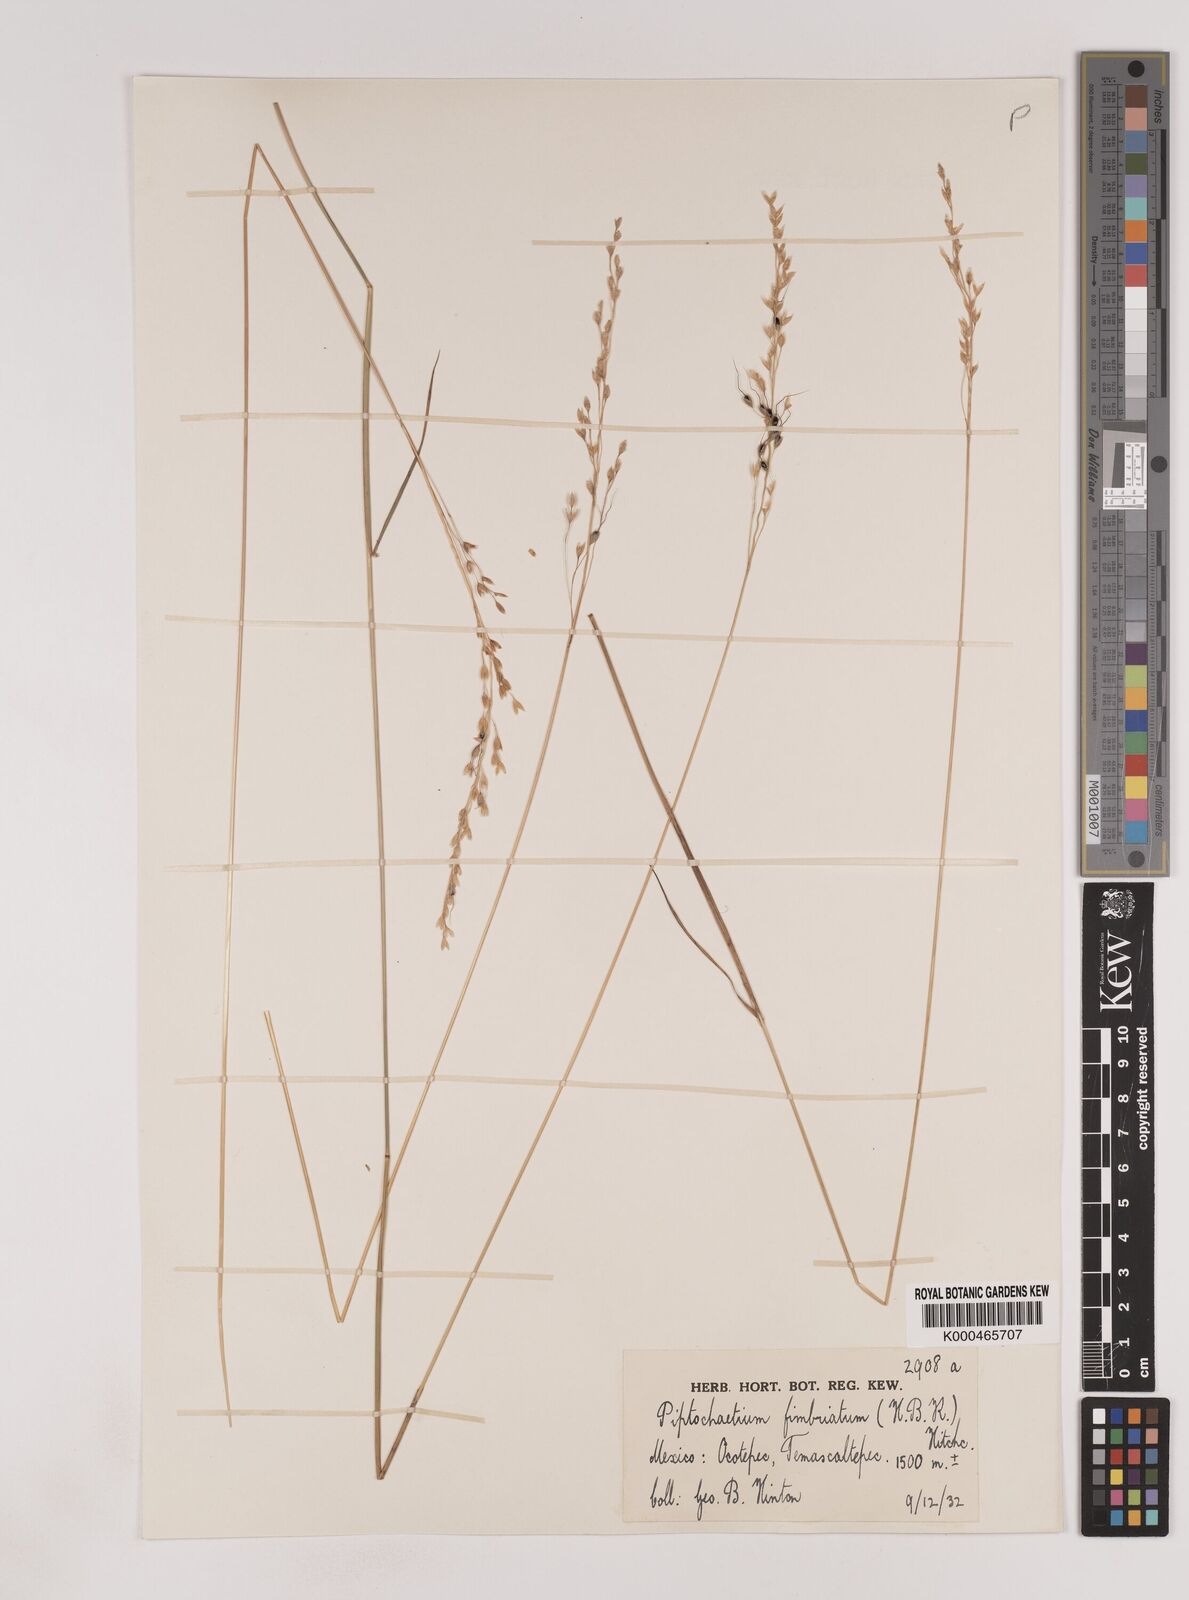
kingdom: Plantae
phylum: Tracheophyta
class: Liliopsida
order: Poales
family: Poaceae
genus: Piptochaetium
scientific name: Piptochaetium fimbriatum
